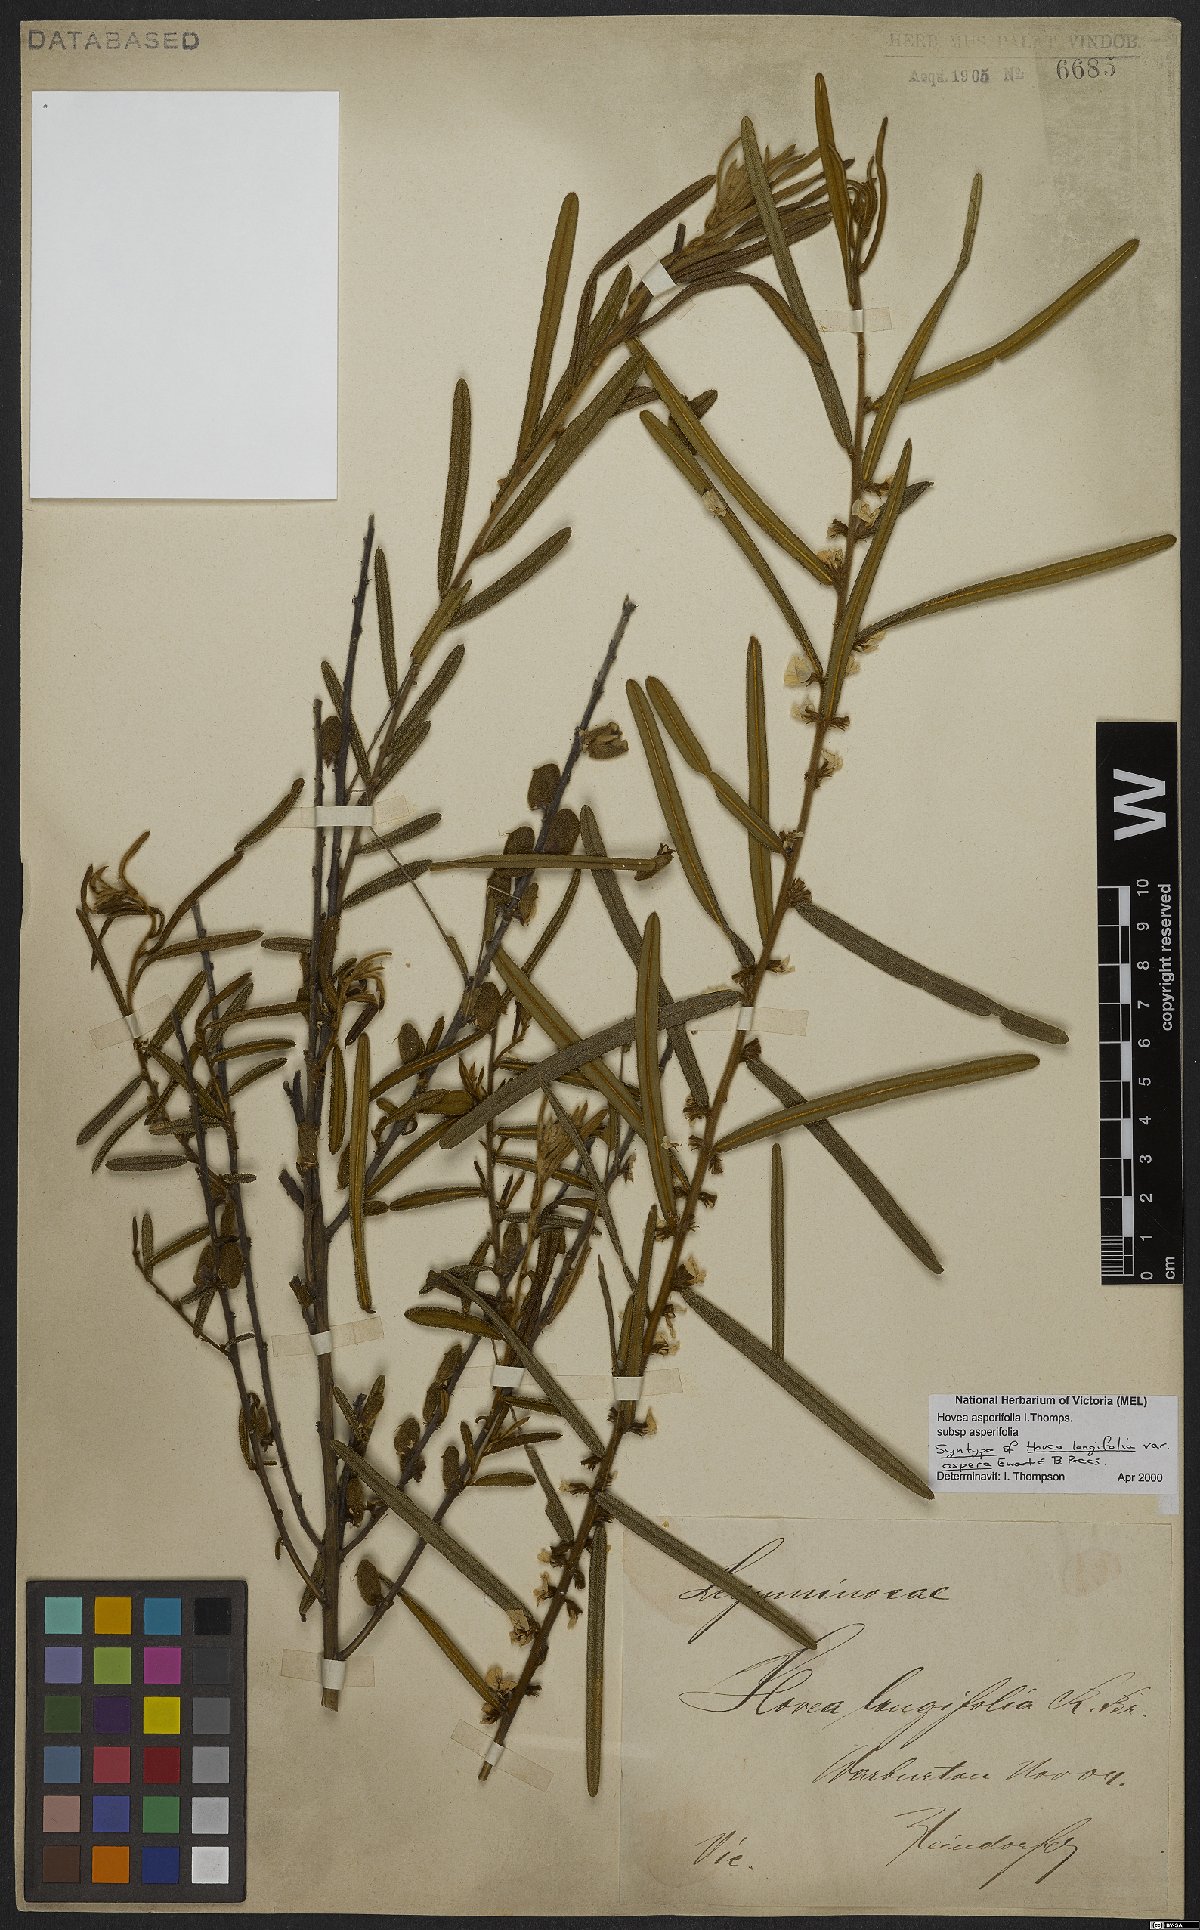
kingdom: Plantae
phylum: Tracheophyta
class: Magnoliopsida
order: Fabales
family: Fabaceae
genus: Hovea
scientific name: Hovea asperifolia
